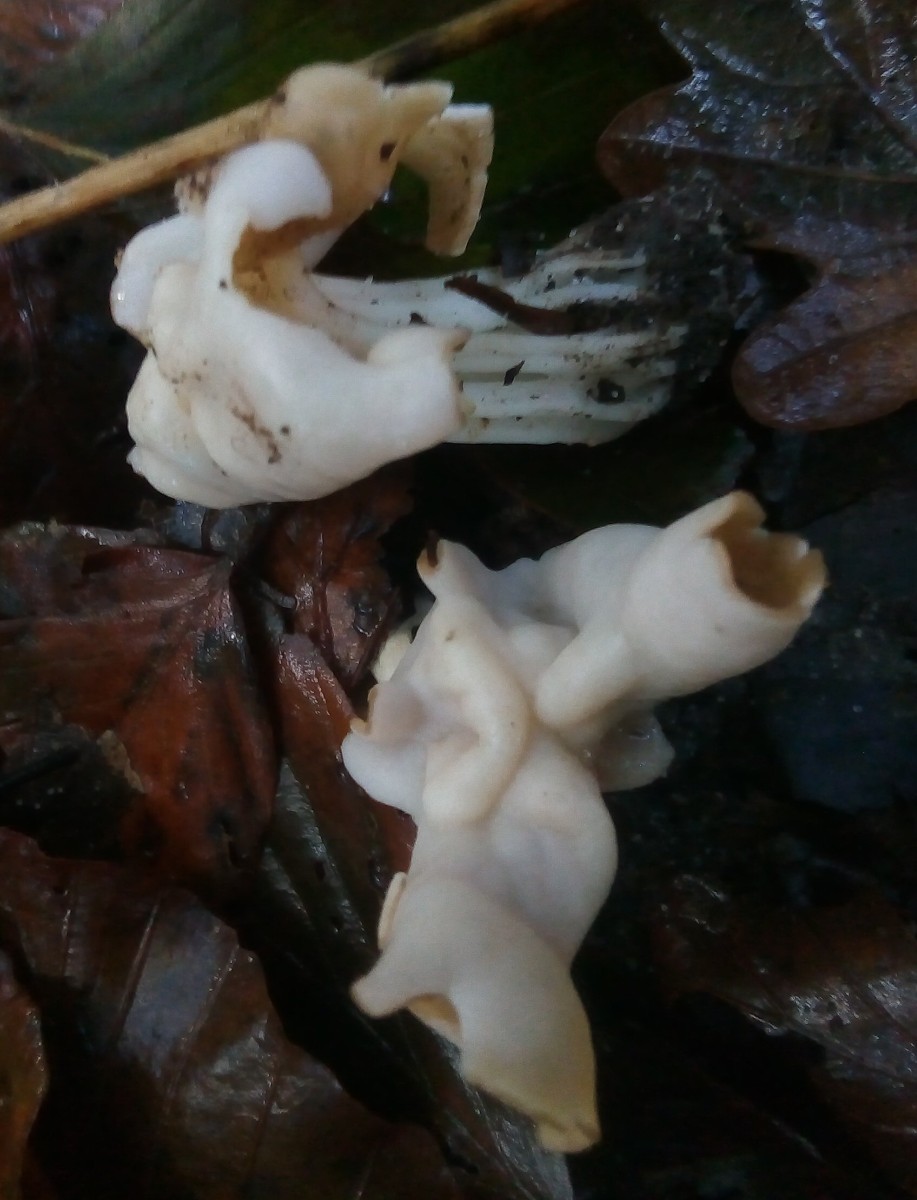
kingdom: Fungi
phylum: Ascomycota
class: Pezizomycetes
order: Pezizales
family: Helvellaceae
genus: Helvella
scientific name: Helvella crispa
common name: kruset foldhat
